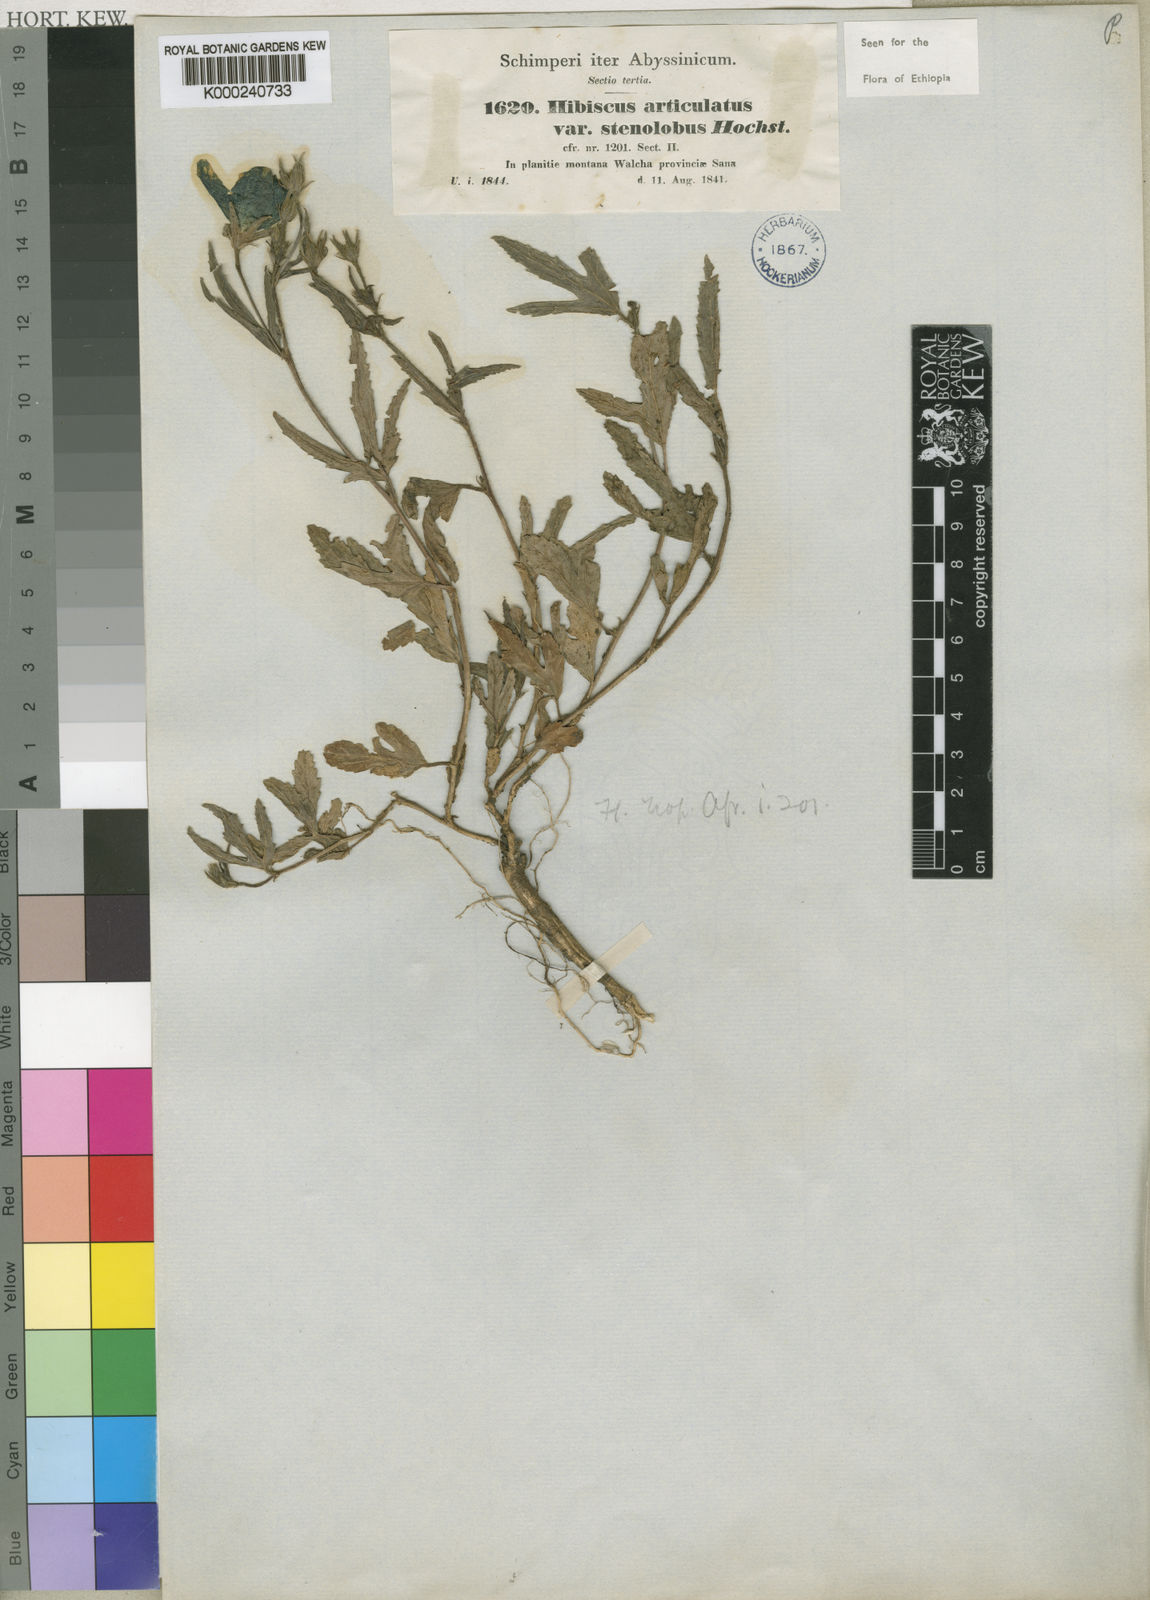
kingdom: Plantae
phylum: Tracheophyta
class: Magnoliopsida
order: Malvales
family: Malvaceae
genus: Hibiscus
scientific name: Hibiscus articulatus
